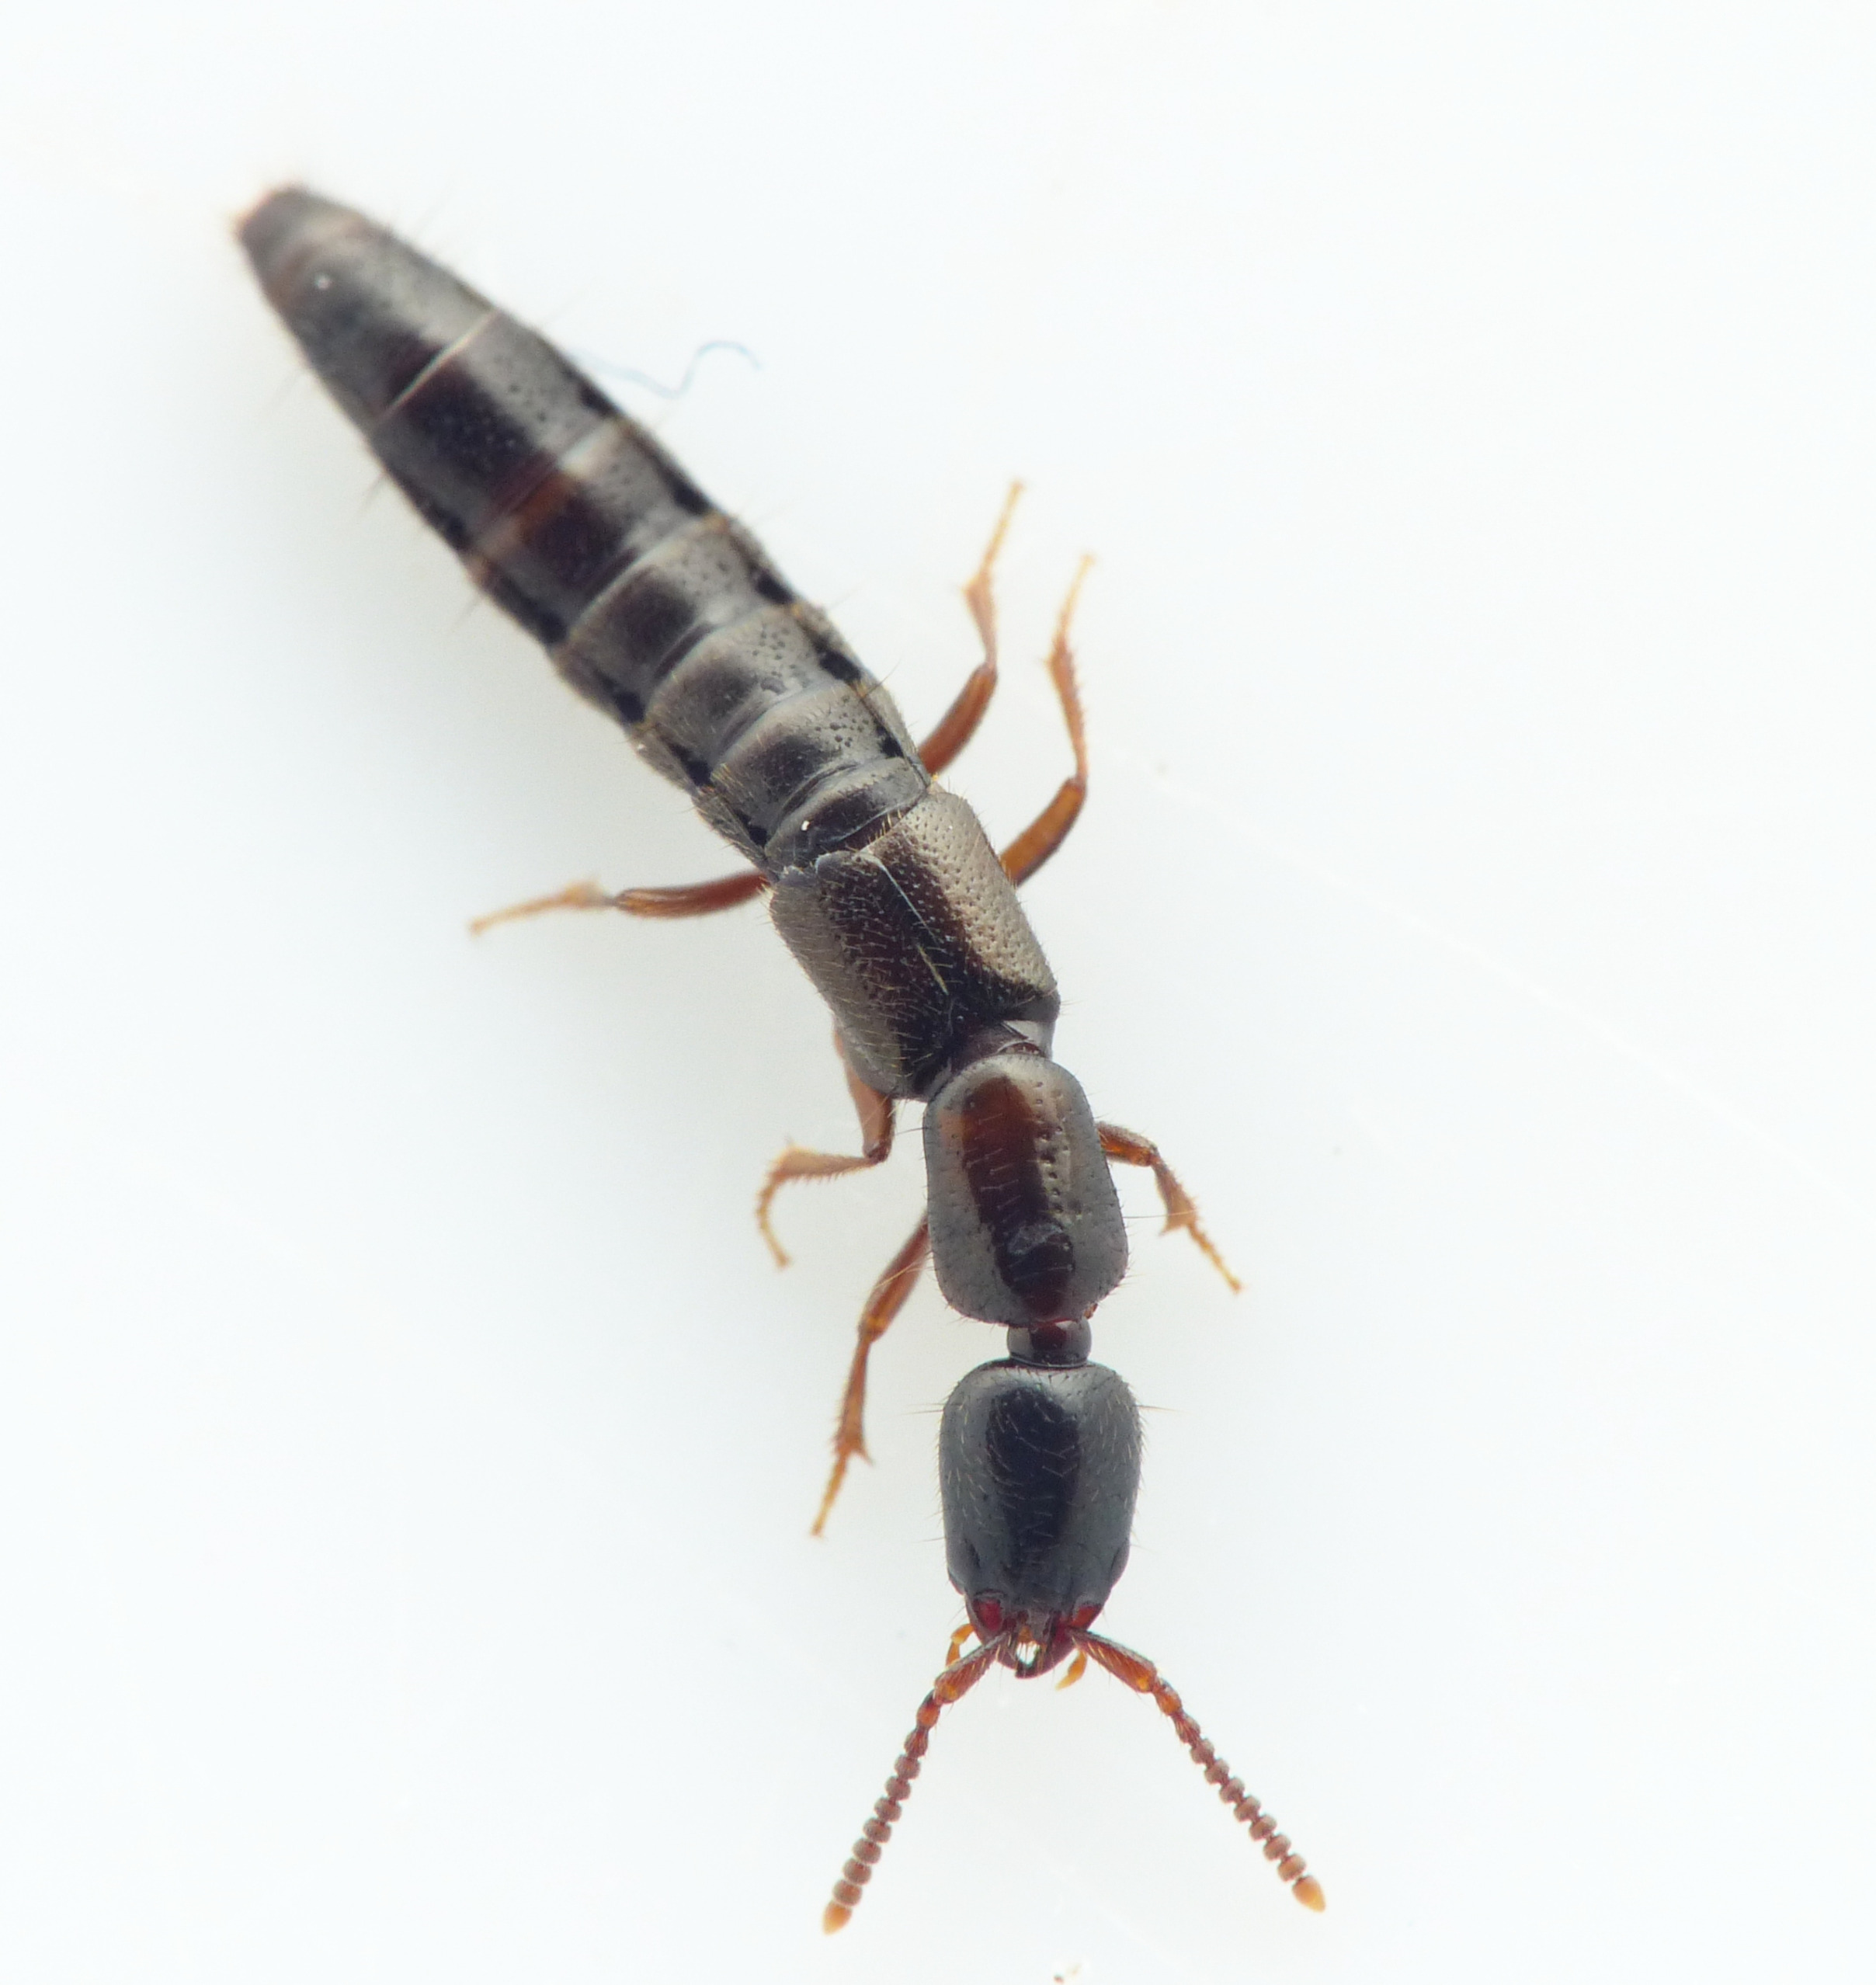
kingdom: Animalia
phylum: Arthropoda
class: Insecta
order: Coleoptera
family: Staphylinidae
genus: Xantholinus
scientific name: Xantholinus linearis
